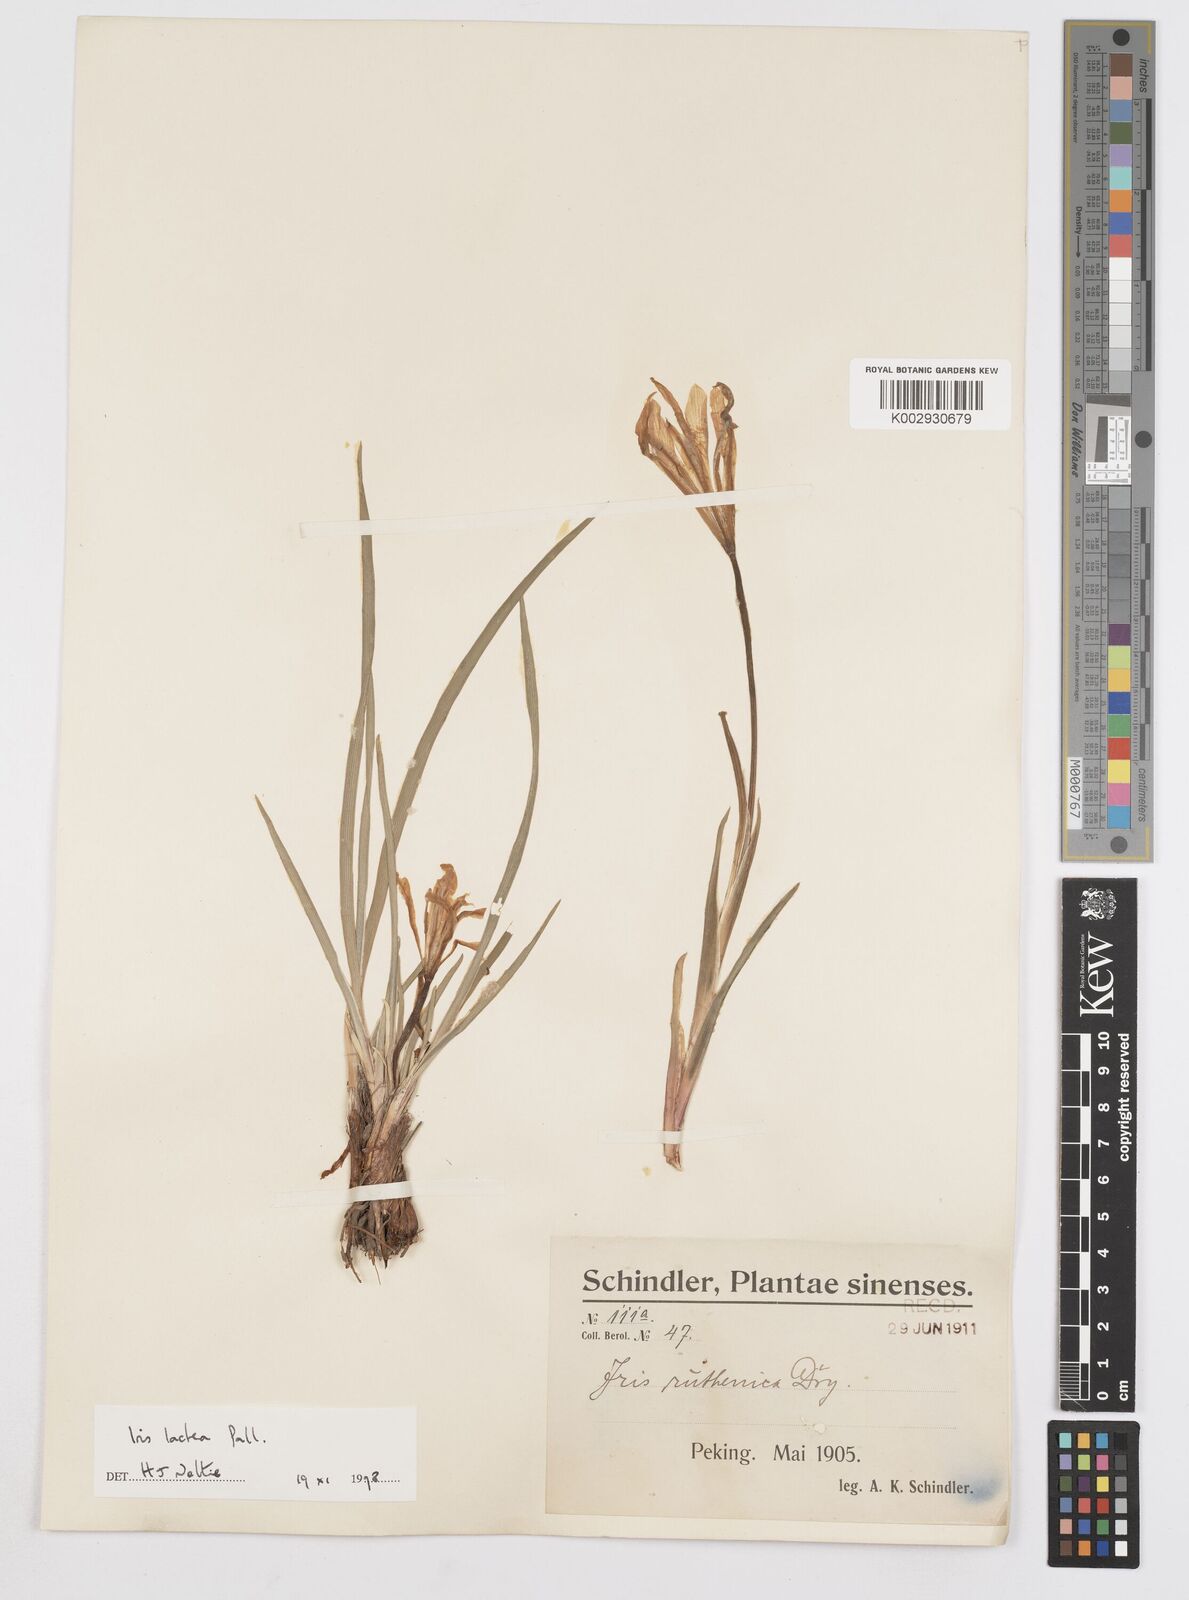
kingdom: Plantae
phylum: Tracheophyta
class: Liliopsida
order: Asparagales
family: Iridaceae
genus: Iris
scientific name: Iris ensata
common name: Beaked iris
